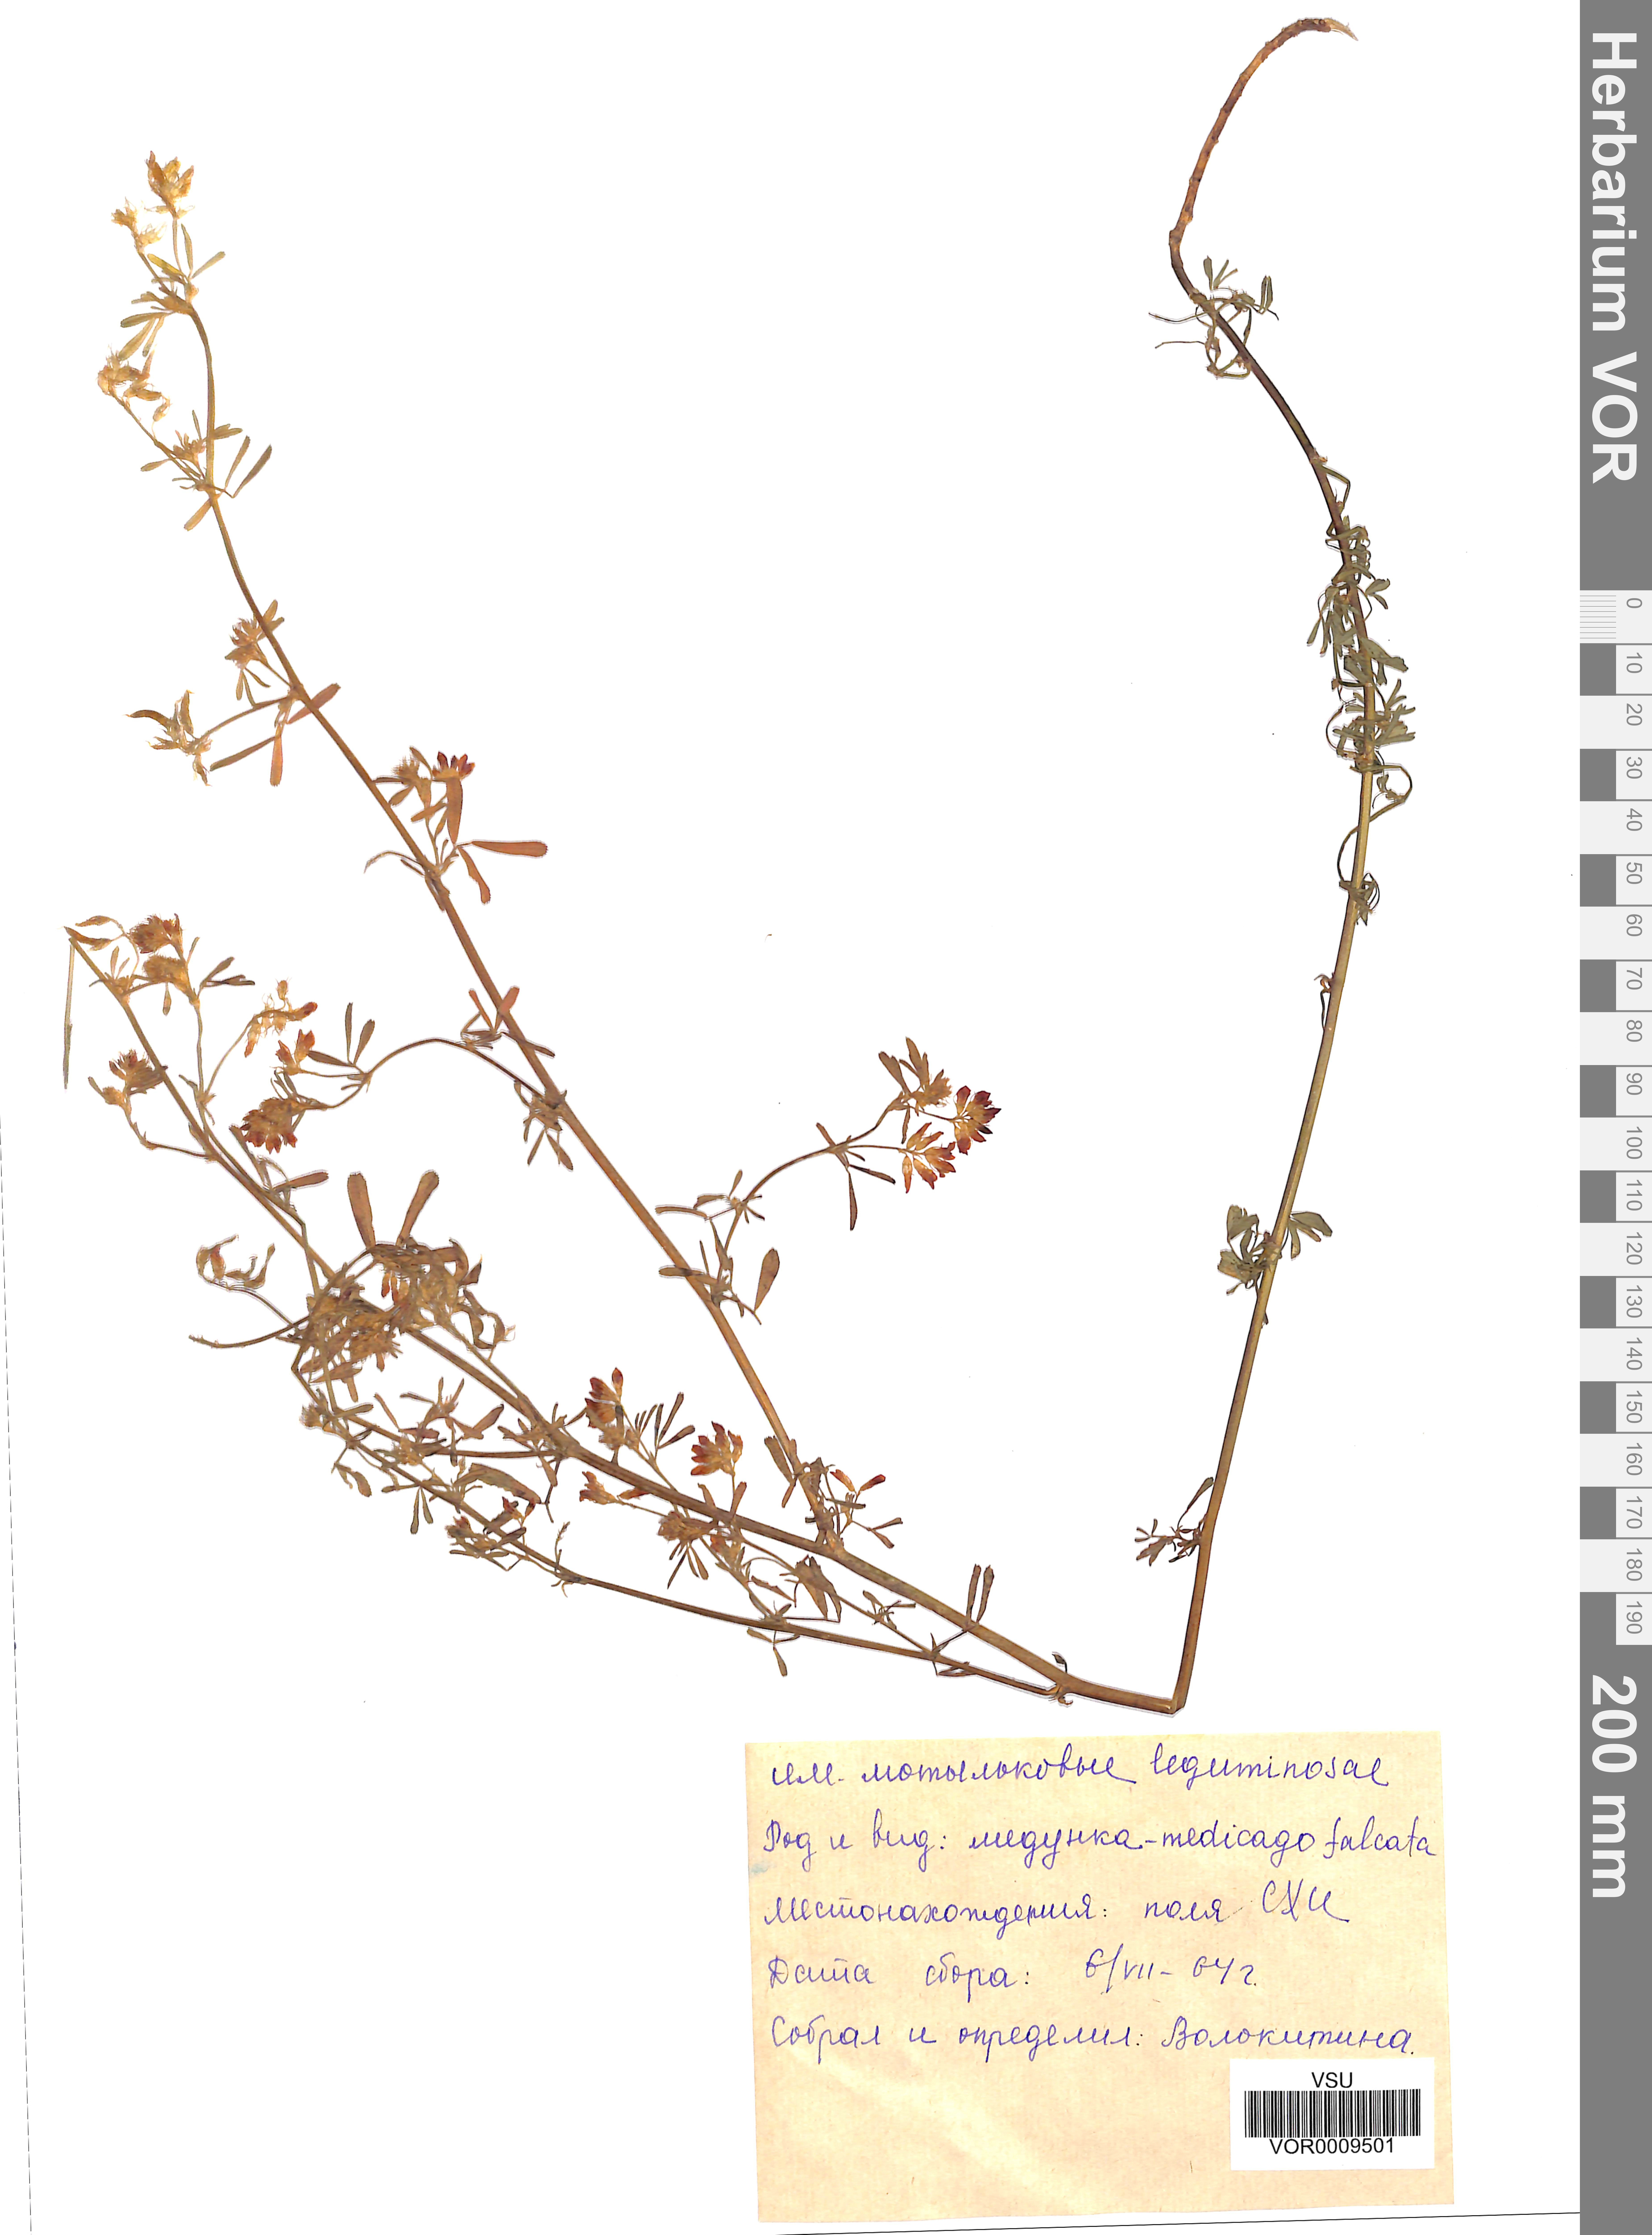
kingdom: Plantae
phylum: Tracheophyta
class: Magnoliopsida
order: Fabales
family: Fabaceae
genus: Medicago
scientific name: Medicago falcata
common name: Sickle medick
